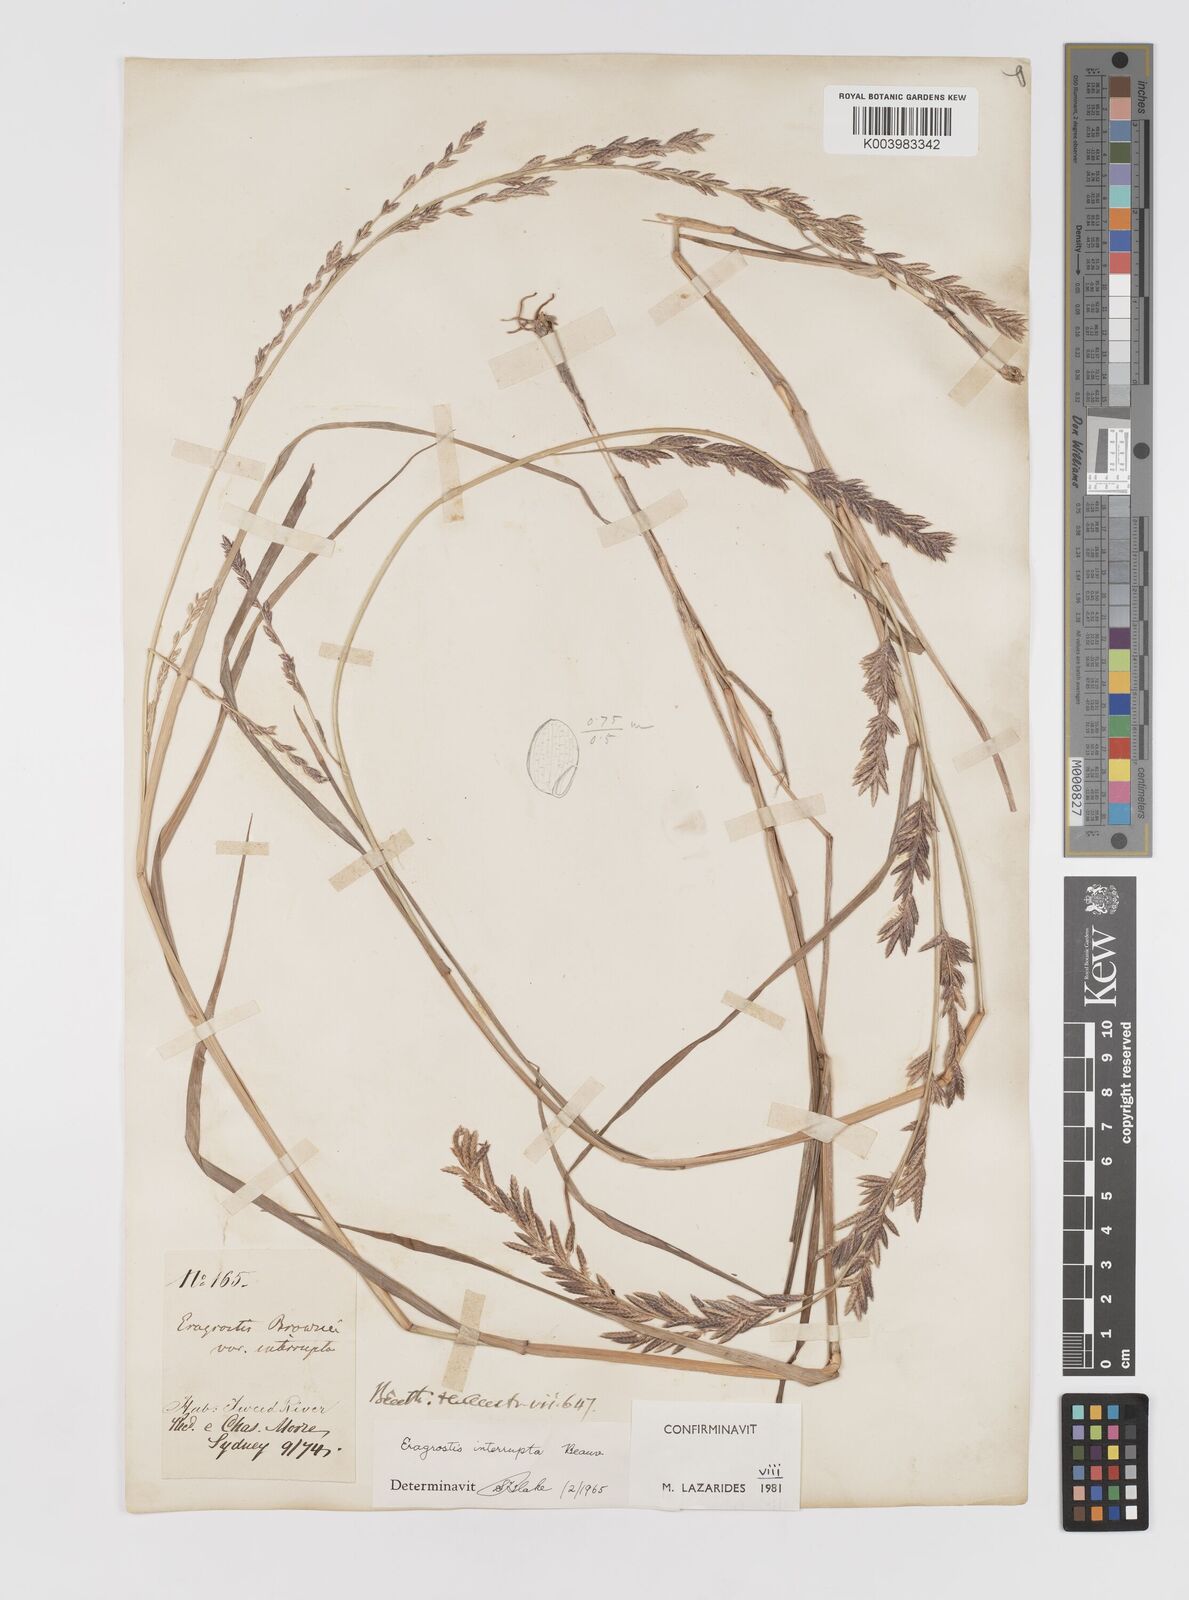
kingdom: Plantae
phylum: Tracheophyta
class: Liliopsida
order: Poales
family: Poaceae
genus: Eragrostis
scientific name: Eragrostis interrupta
